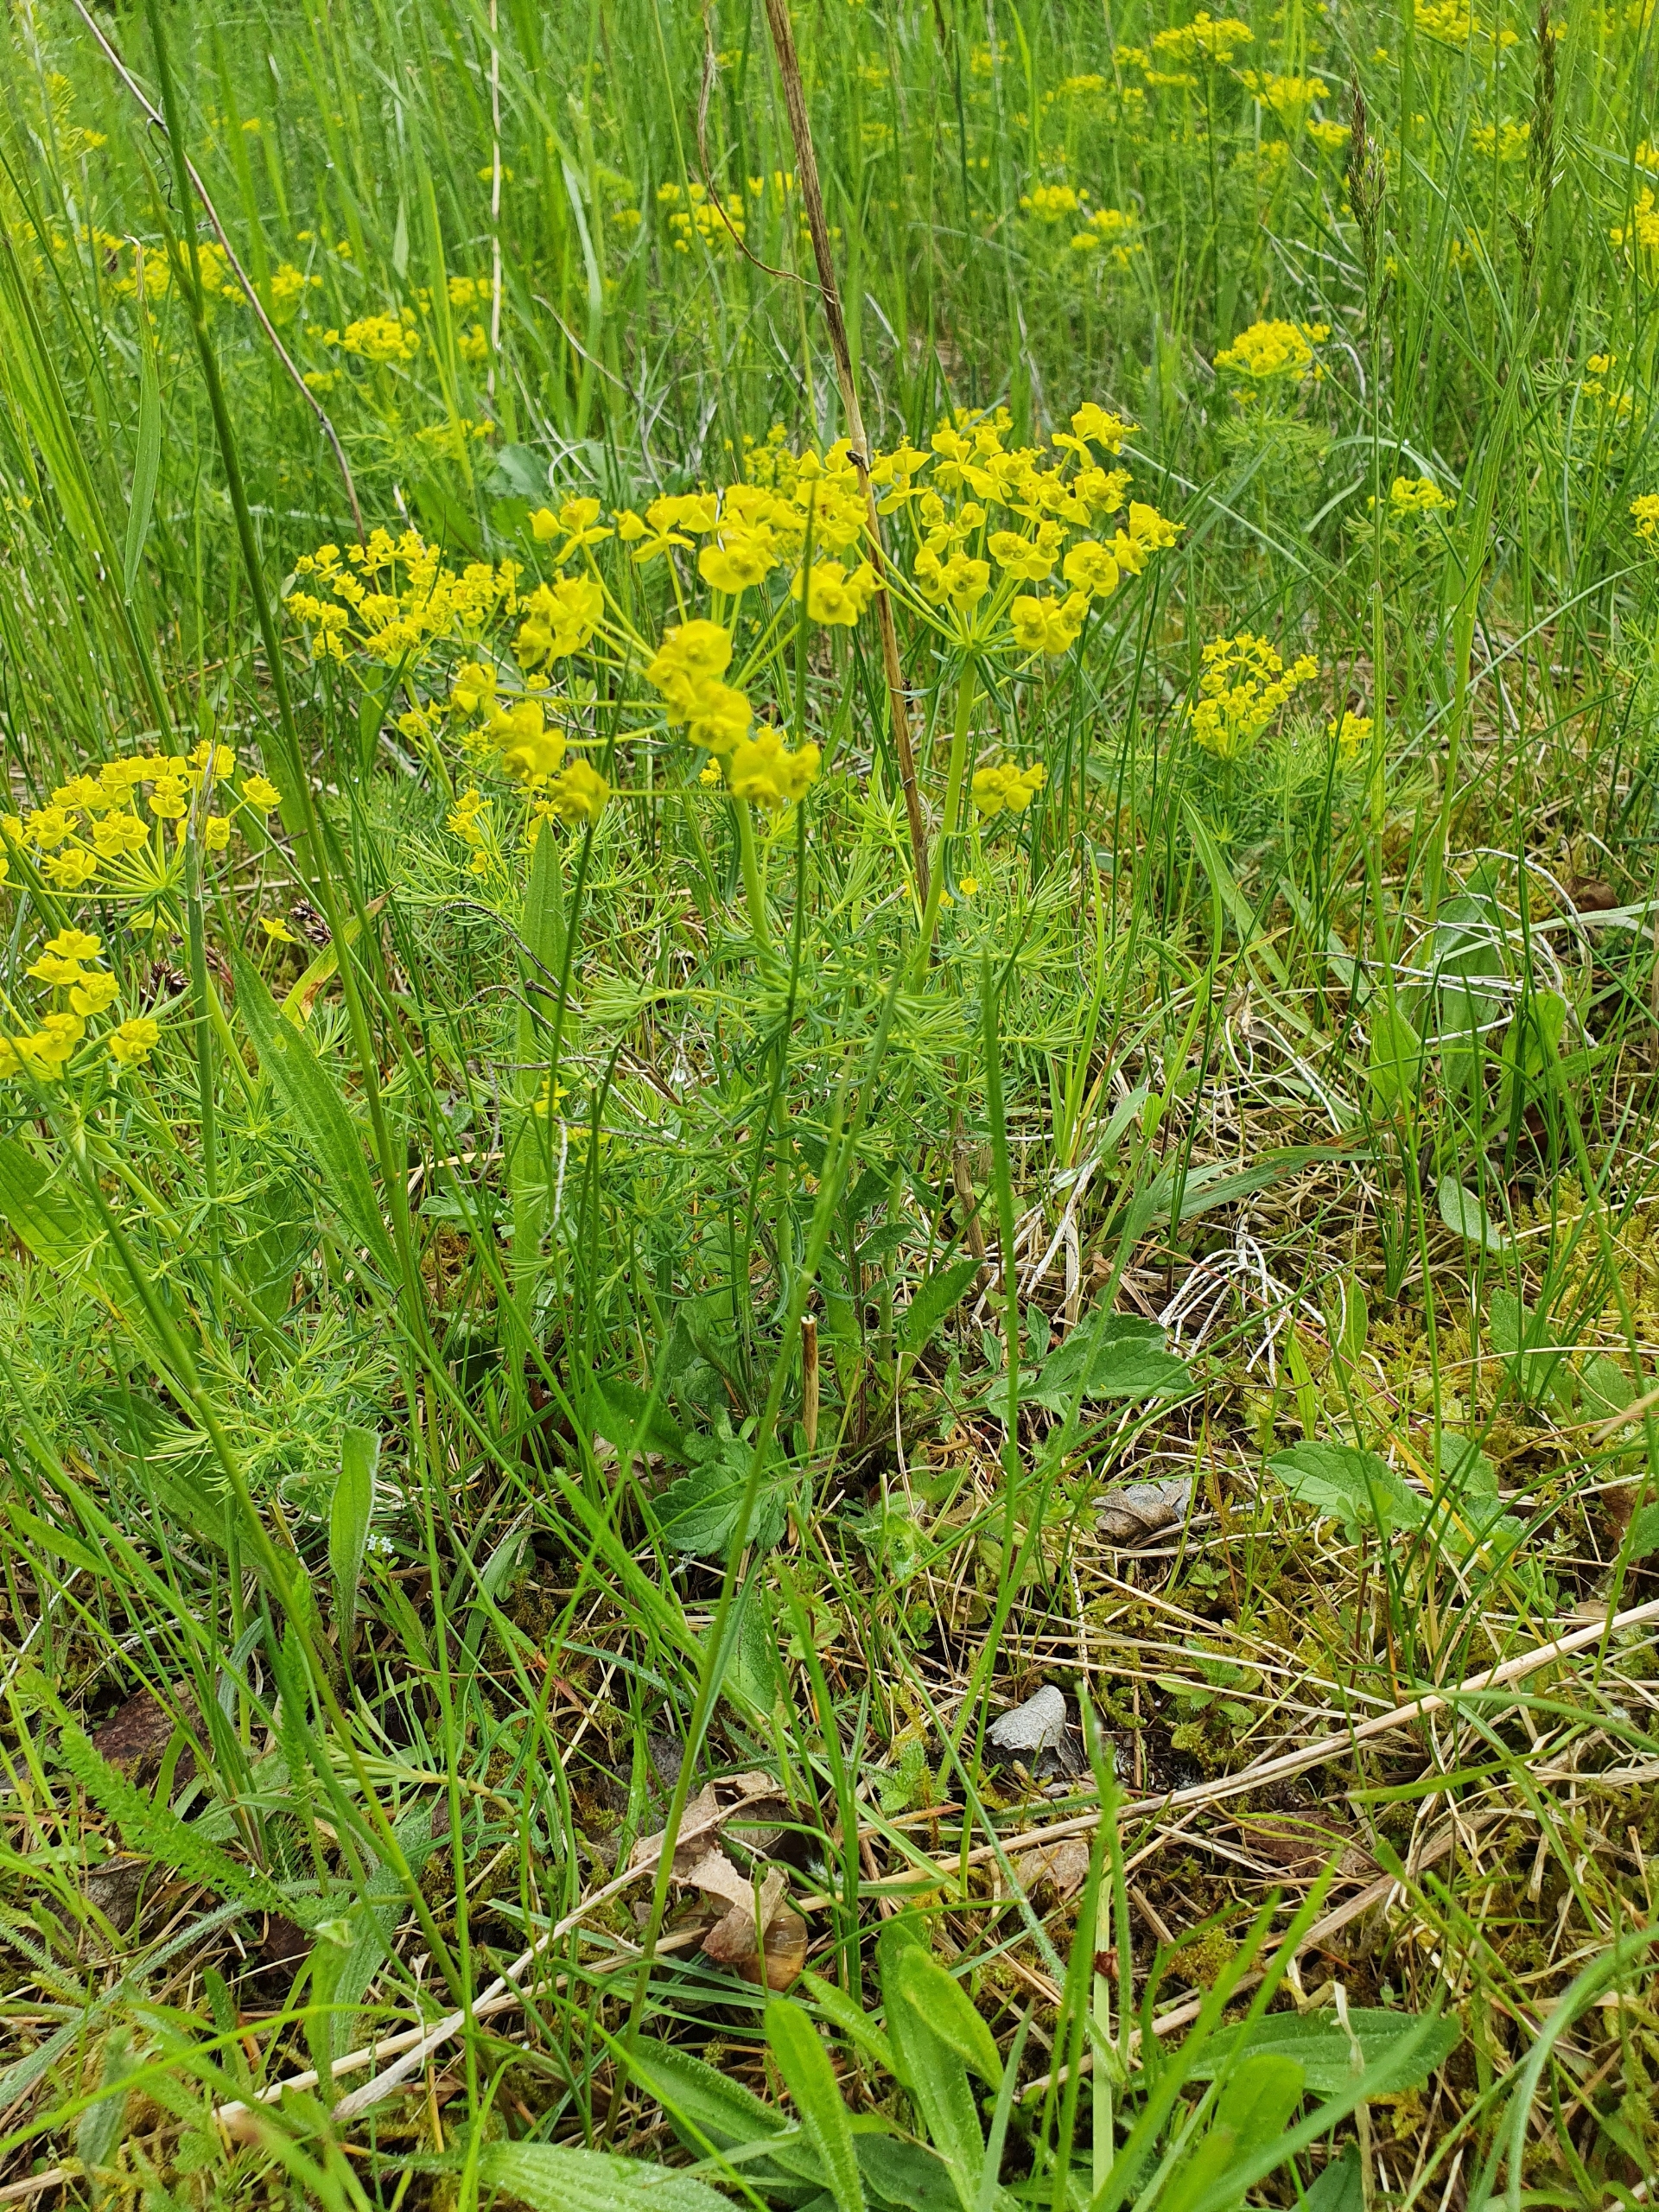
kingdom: Plantae
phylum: Tracheophyta
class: Magnoliopsida
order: Malpighiales
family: Euphorbiaceae
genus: Euphorbia
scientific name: Euphorbia cyparissias
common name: Cypres-vortemælk
